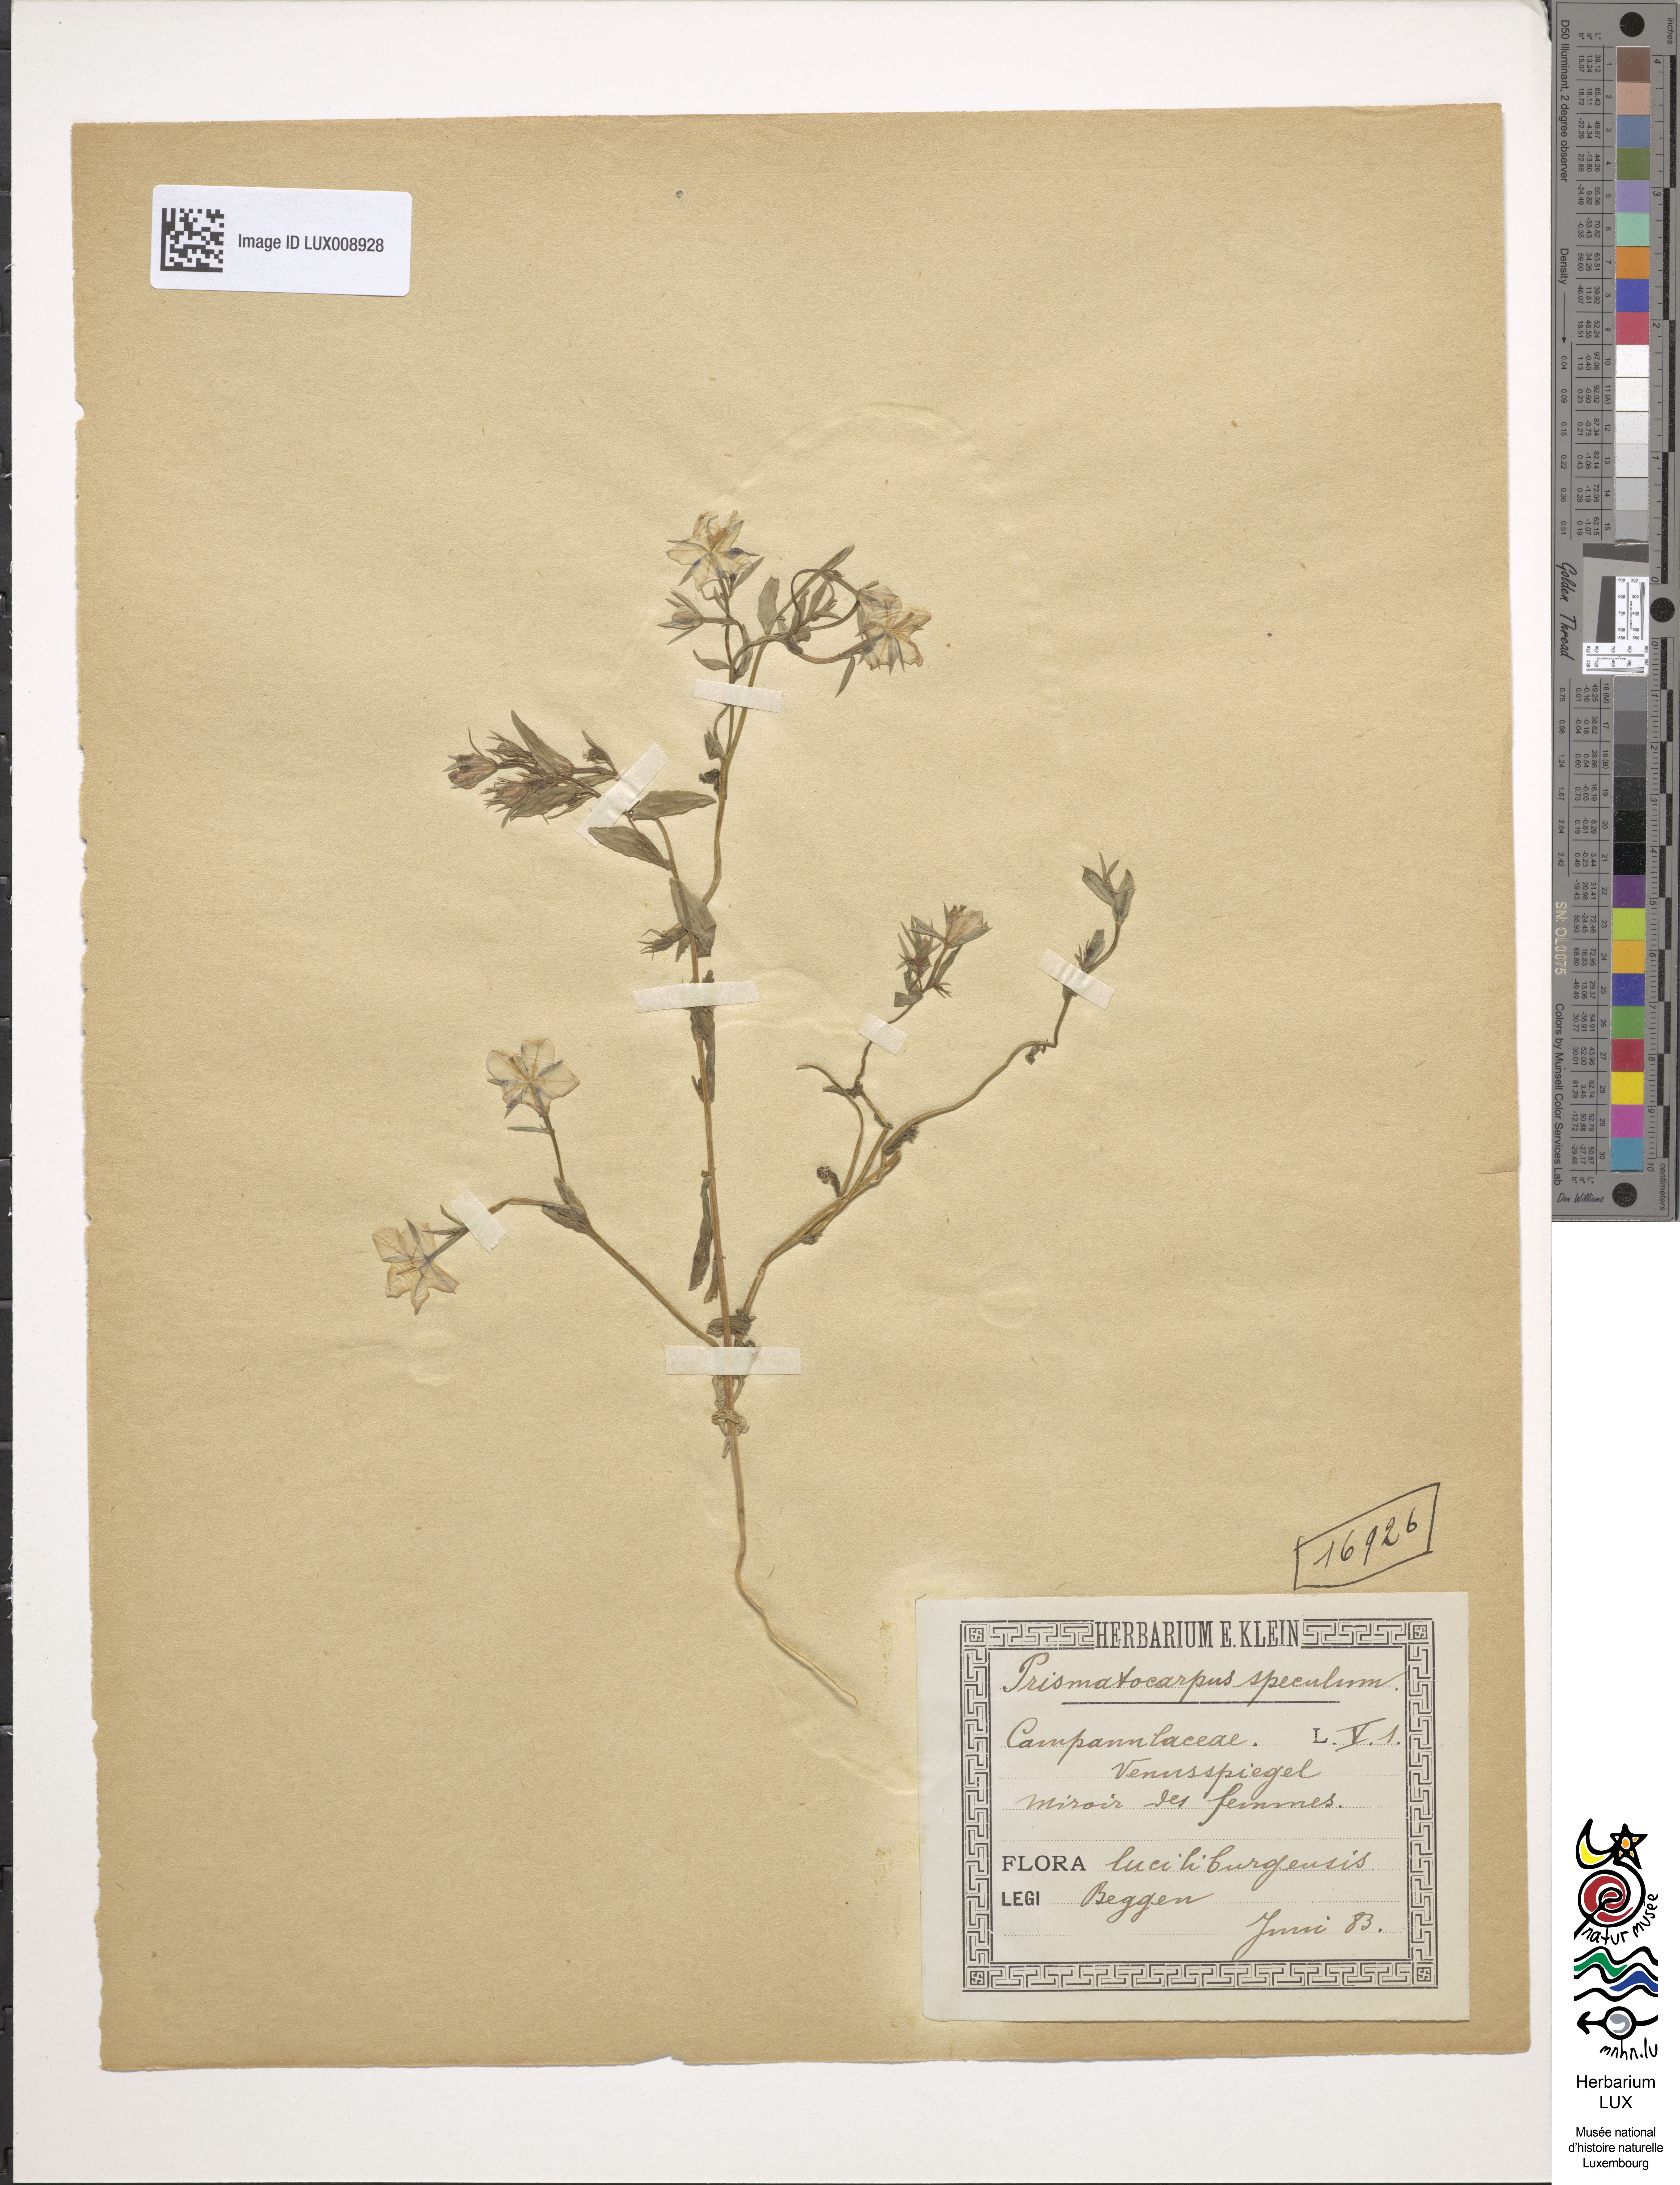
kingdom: Plantae
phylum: Tracheophyta
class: Magnoliopsida
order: Asterales
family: Campanulaceae
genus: Legousia
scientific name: Legousia speculum-veneris
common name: Large venus's-looking-glass
